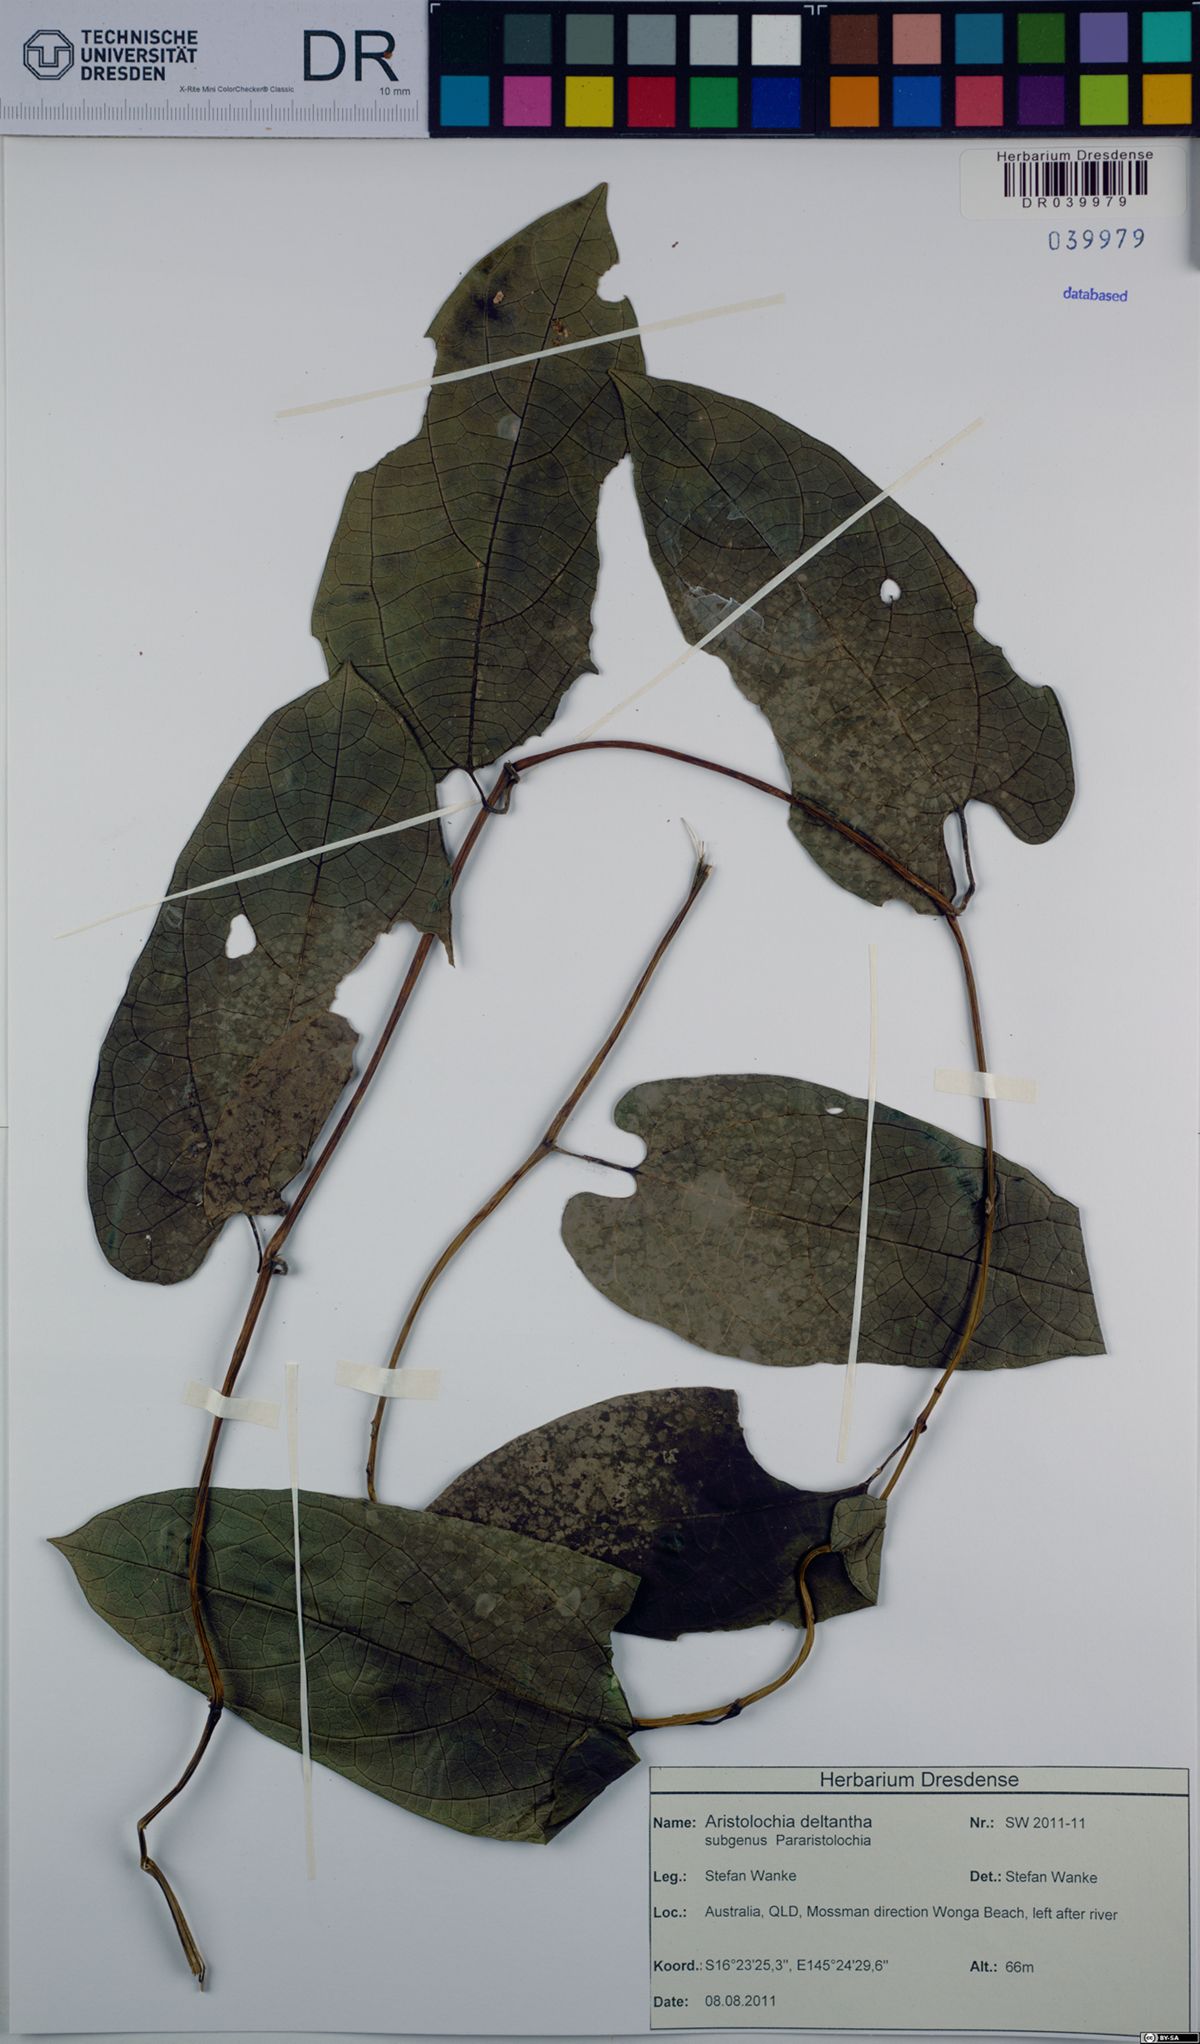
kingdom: Plantae
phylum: Tracheophyta
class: Magnoliopsida
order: Piperales
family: Aristolochiaceae
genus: Aristolochia
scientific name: Aristolochia deltantha
